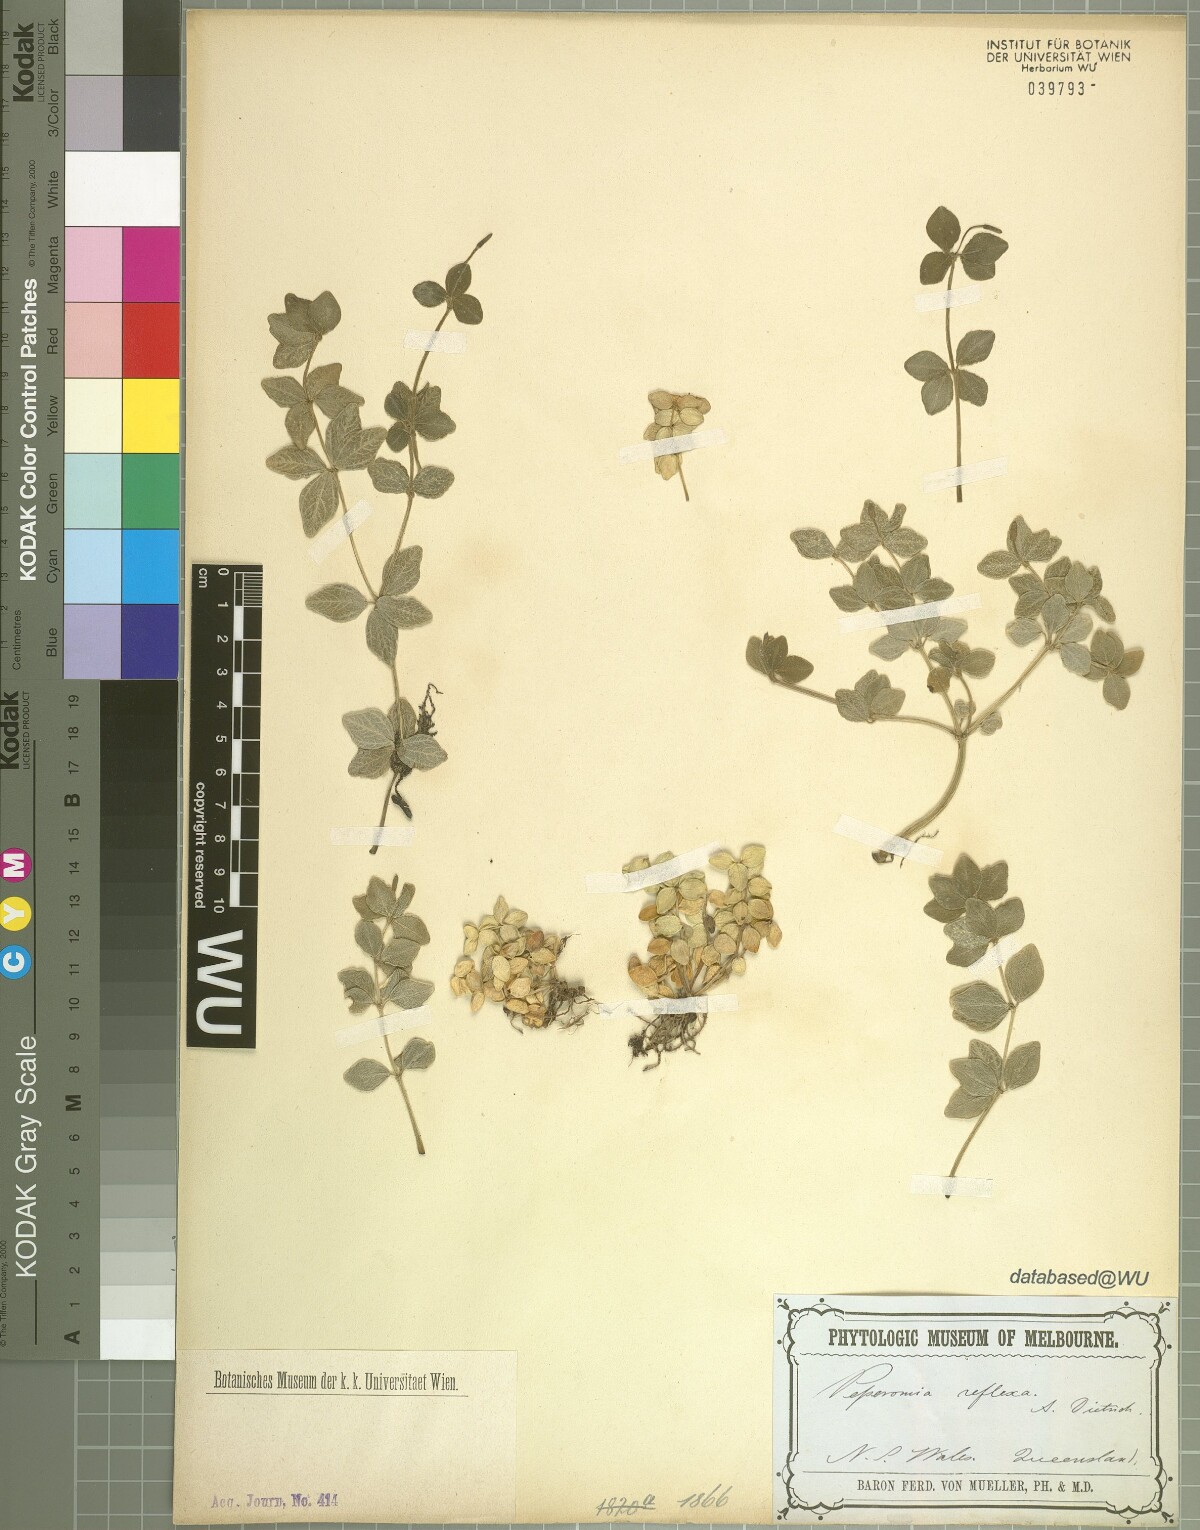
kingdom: Plantae
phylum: Tracheophyta
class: Magnoliopsida
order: Piperales
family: Piperaceae
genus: Peperomia
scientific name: Peperomia tetraphylla
